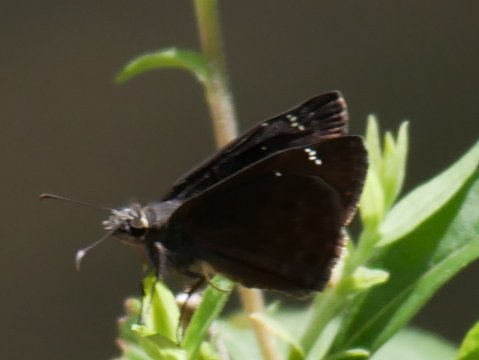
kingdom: Animalia
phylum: Arthropoda
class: Insecta
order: Lepidoptera
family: Hesperiidae
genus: Gesta
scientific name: Gesta
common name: Horace's Duskywing
